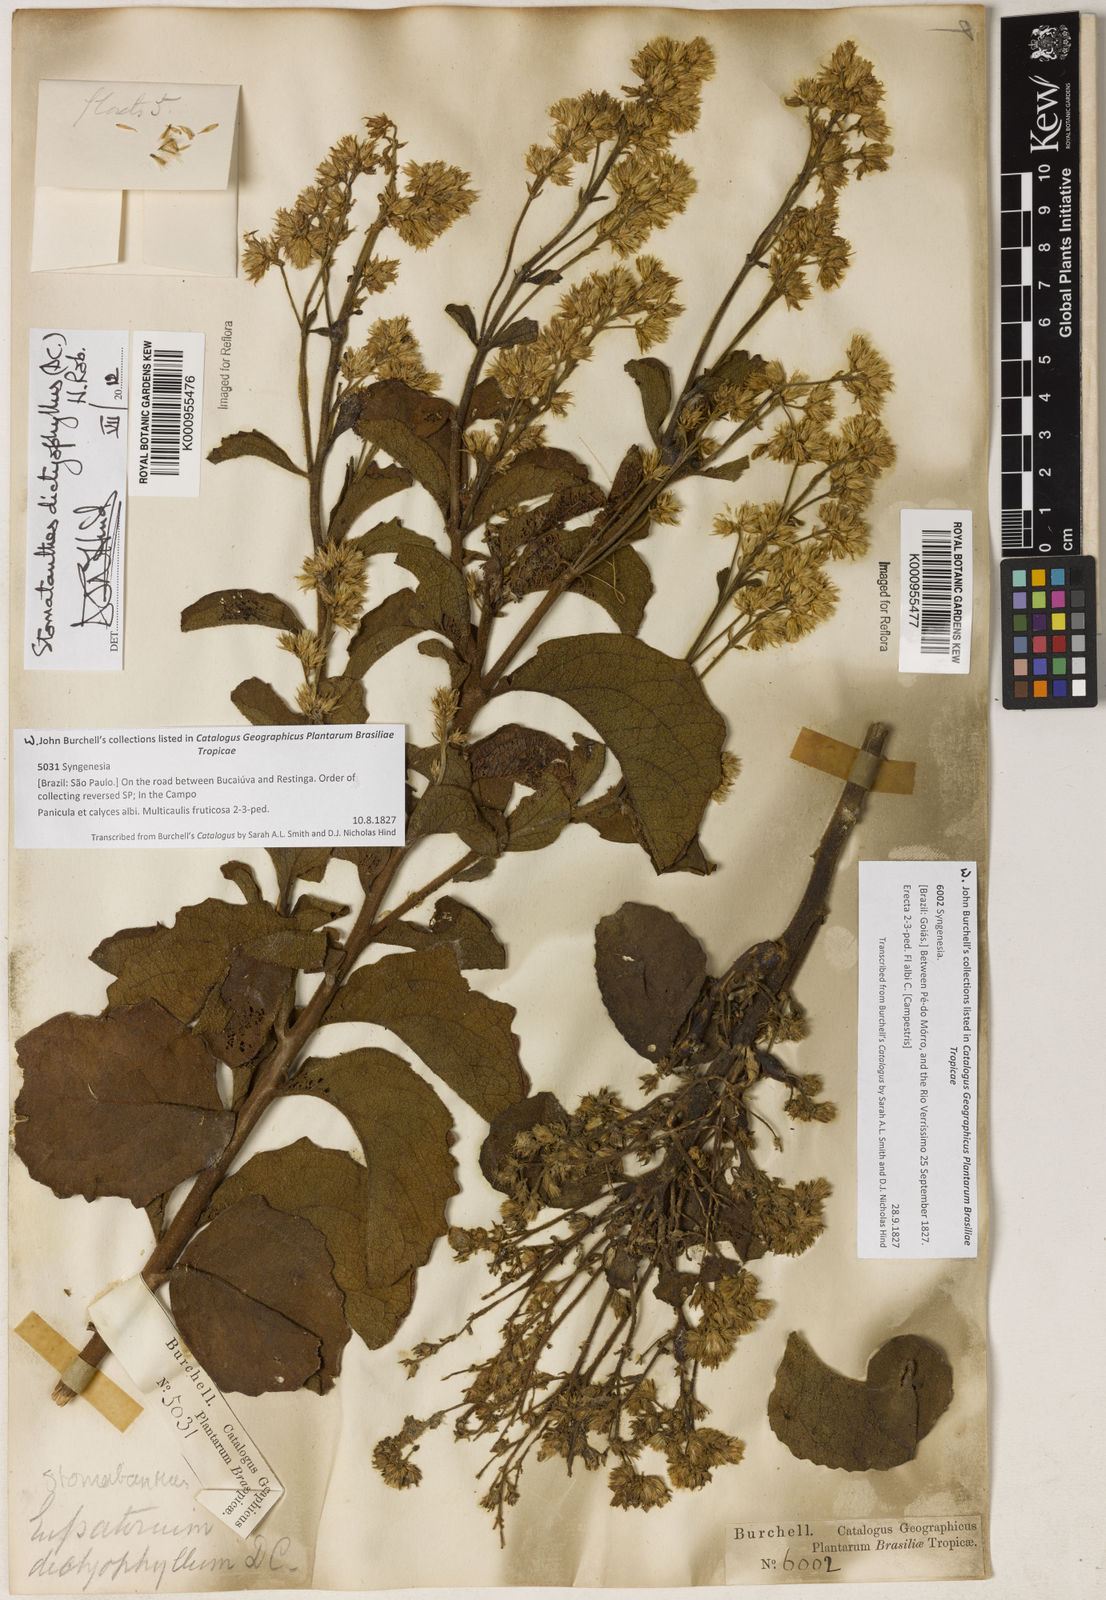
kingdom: Plantae
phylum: Tracheophyta
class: Magnoliopsida
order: Asterales
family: Asteraceae
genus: Stomatanthes
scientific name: Stomatanthes dictyophyllus
